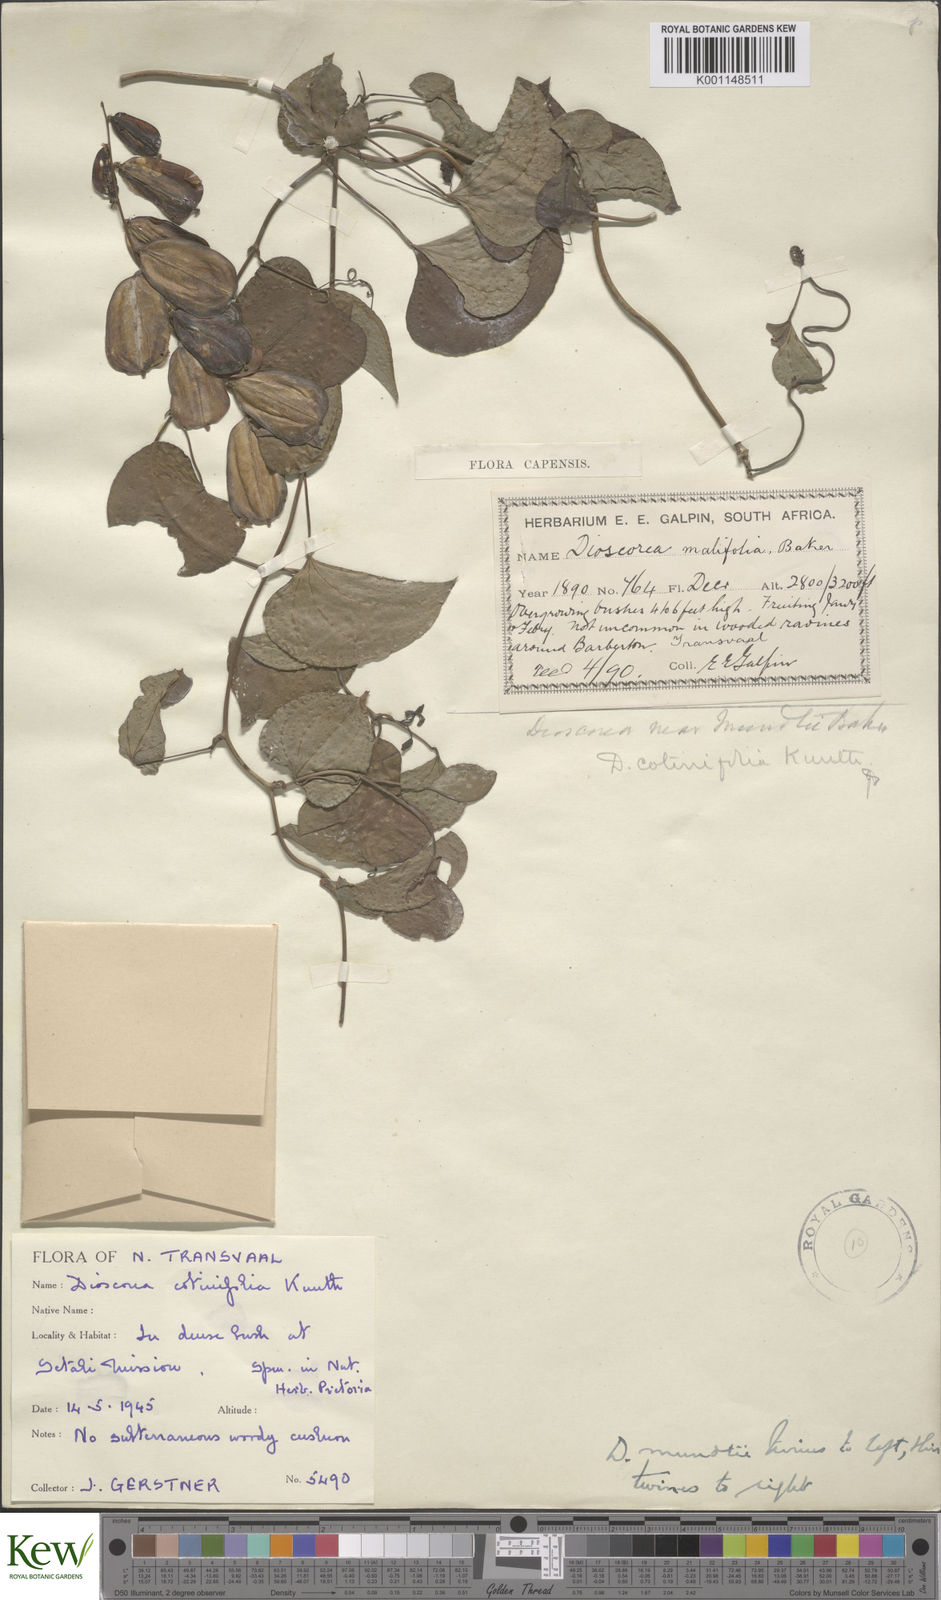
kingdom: Plantae
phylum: Tracheophyta
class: Liliopsida
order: Dioscoreales
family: Dioscoreaceae
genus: Dioscorea
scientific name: Dioscorea cotinifolia
